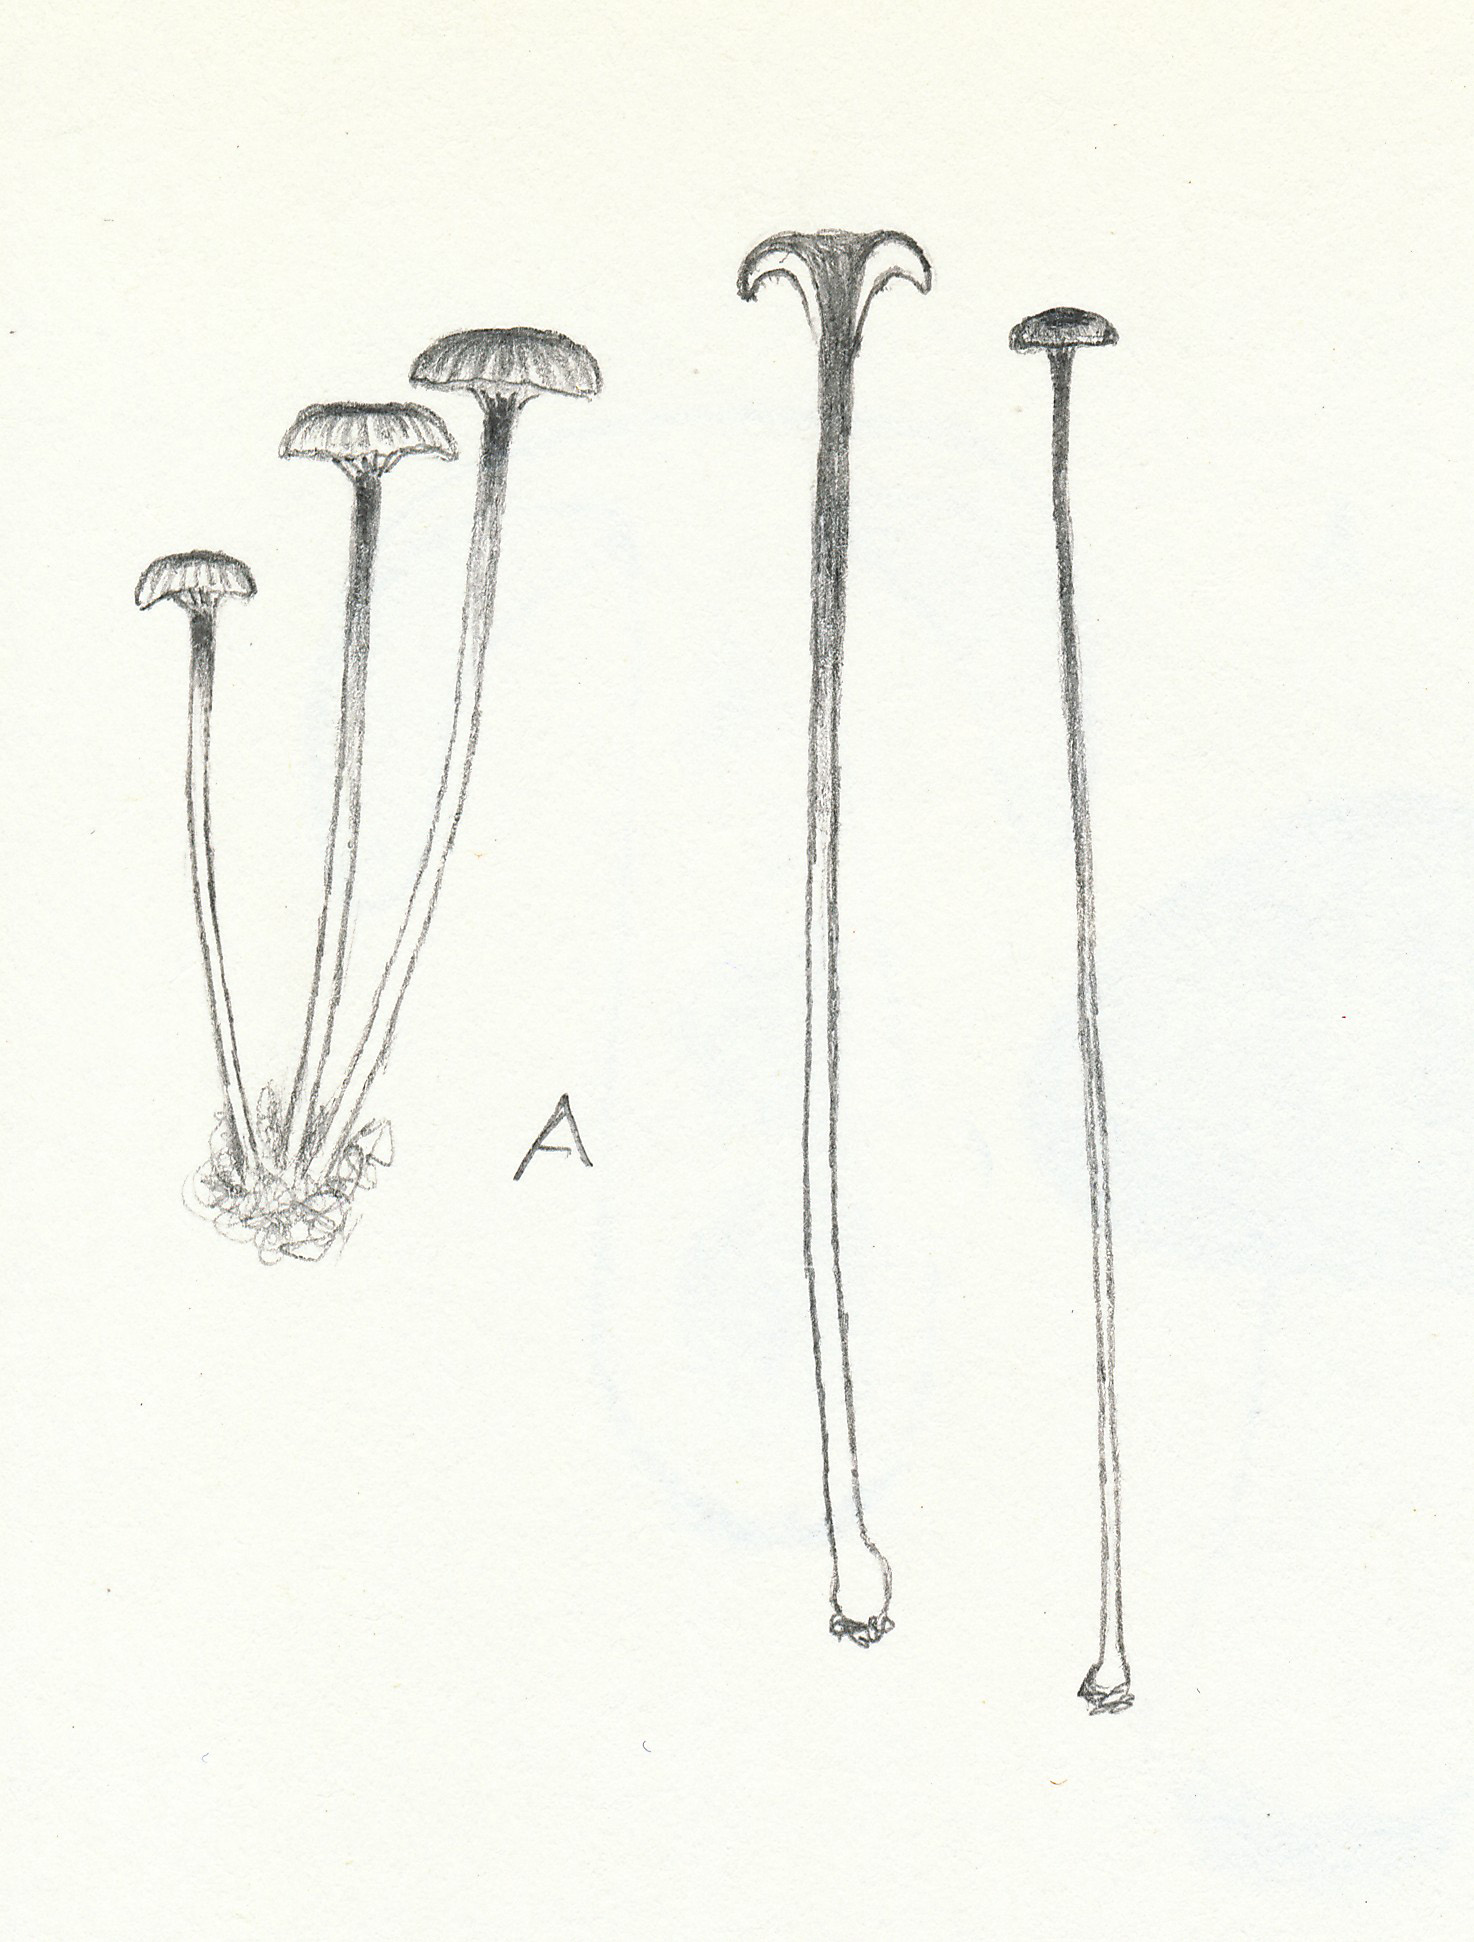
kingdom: Fungi
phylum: Basidiomycota
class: Agaricomycetes
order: Hymenochaetales
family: Rickenellaceae
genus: Rickenella
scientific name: Rickenella fibula
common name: orange mosnavlehat
